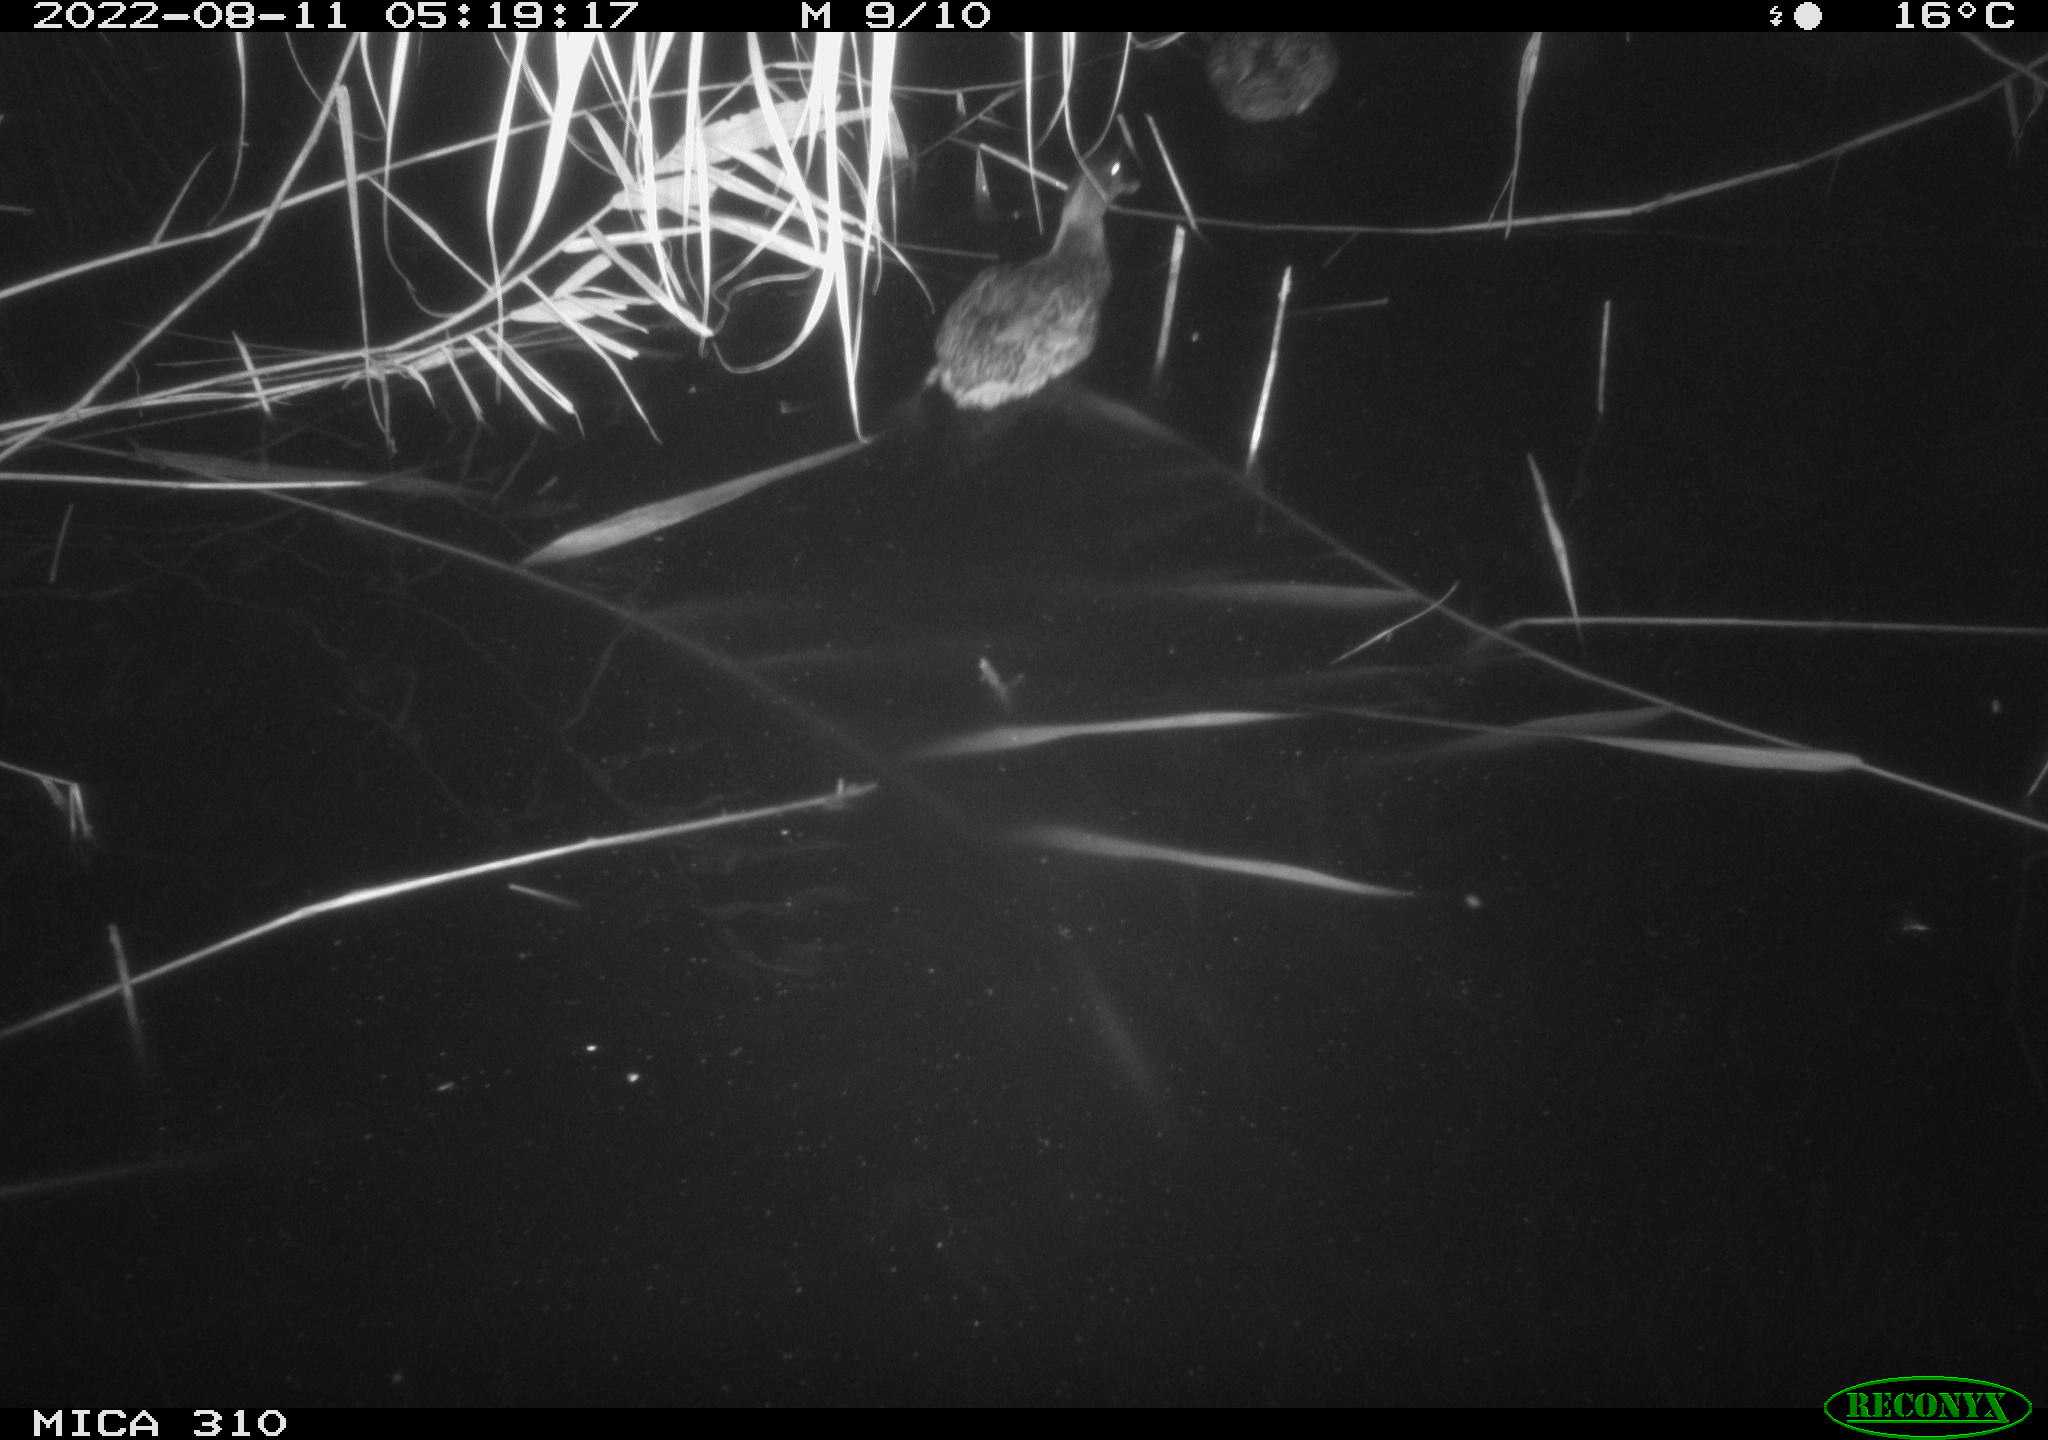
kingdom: Animalia
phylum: Chordata
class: Aves
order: Anseriformes
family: Anatidae
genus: Anas
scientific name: Anas platyrhynchos
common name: Mallard
